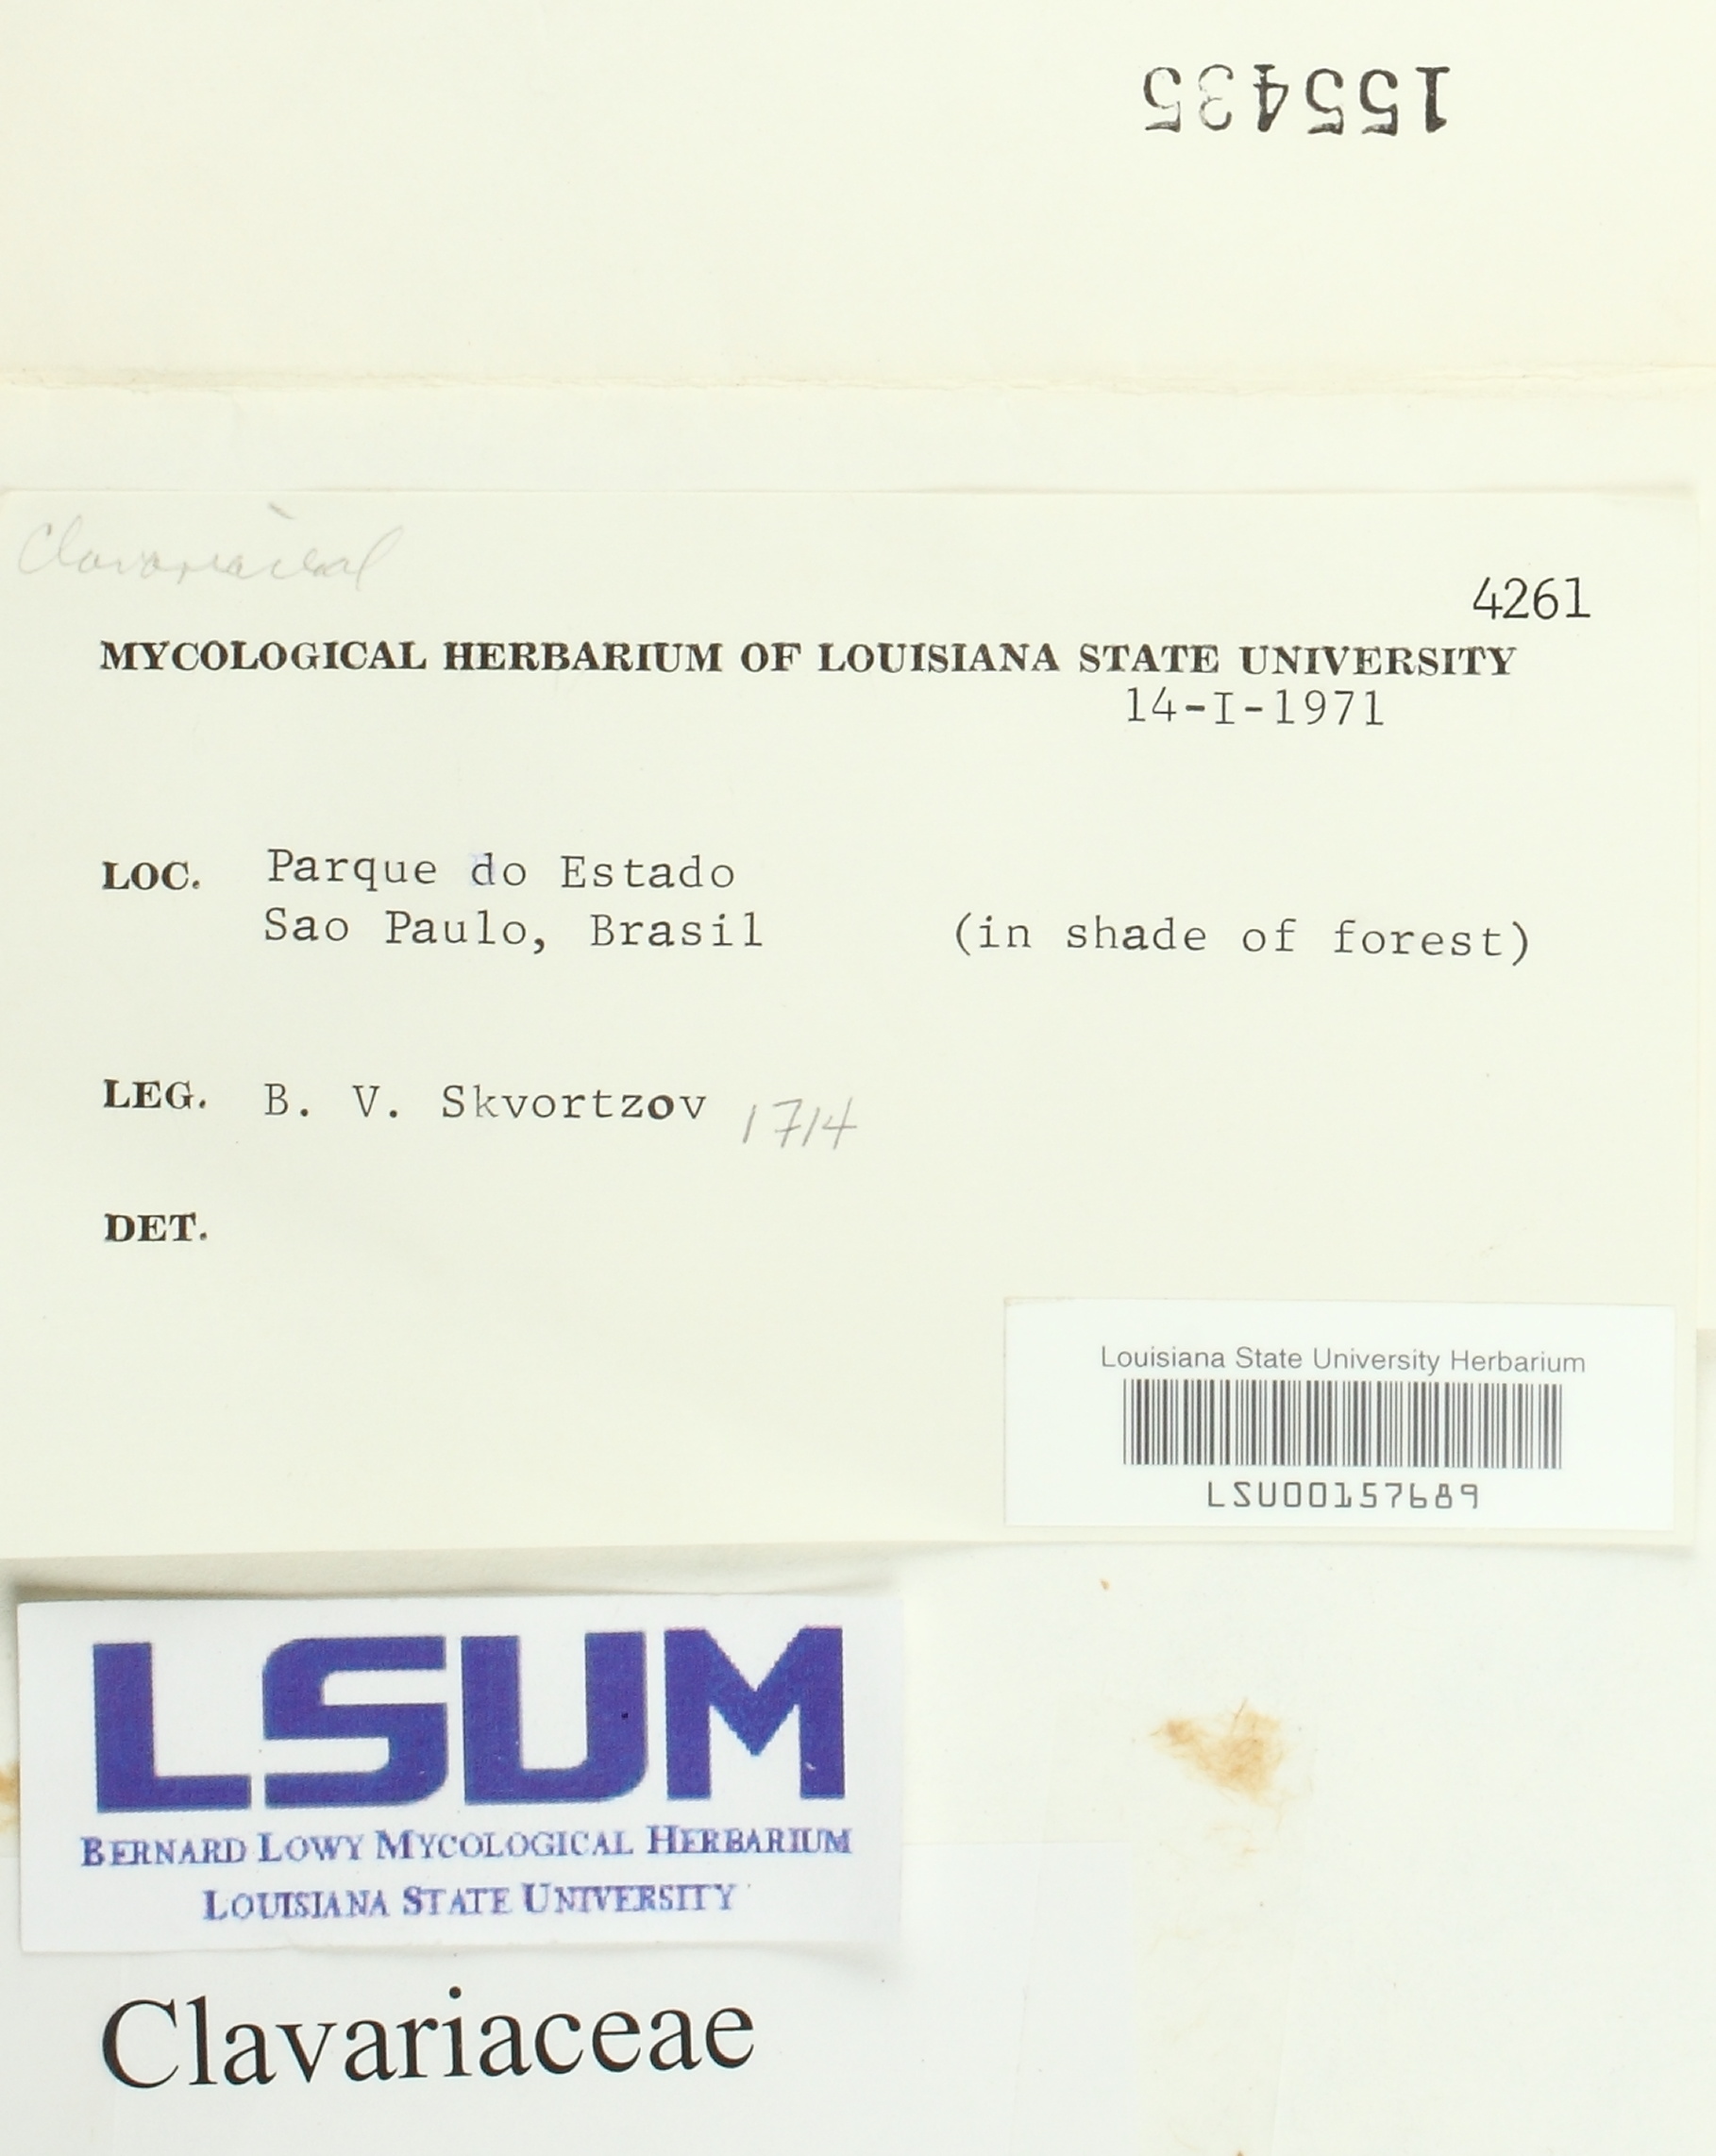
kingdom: Fungi
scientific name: Fungi
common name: Fungi
